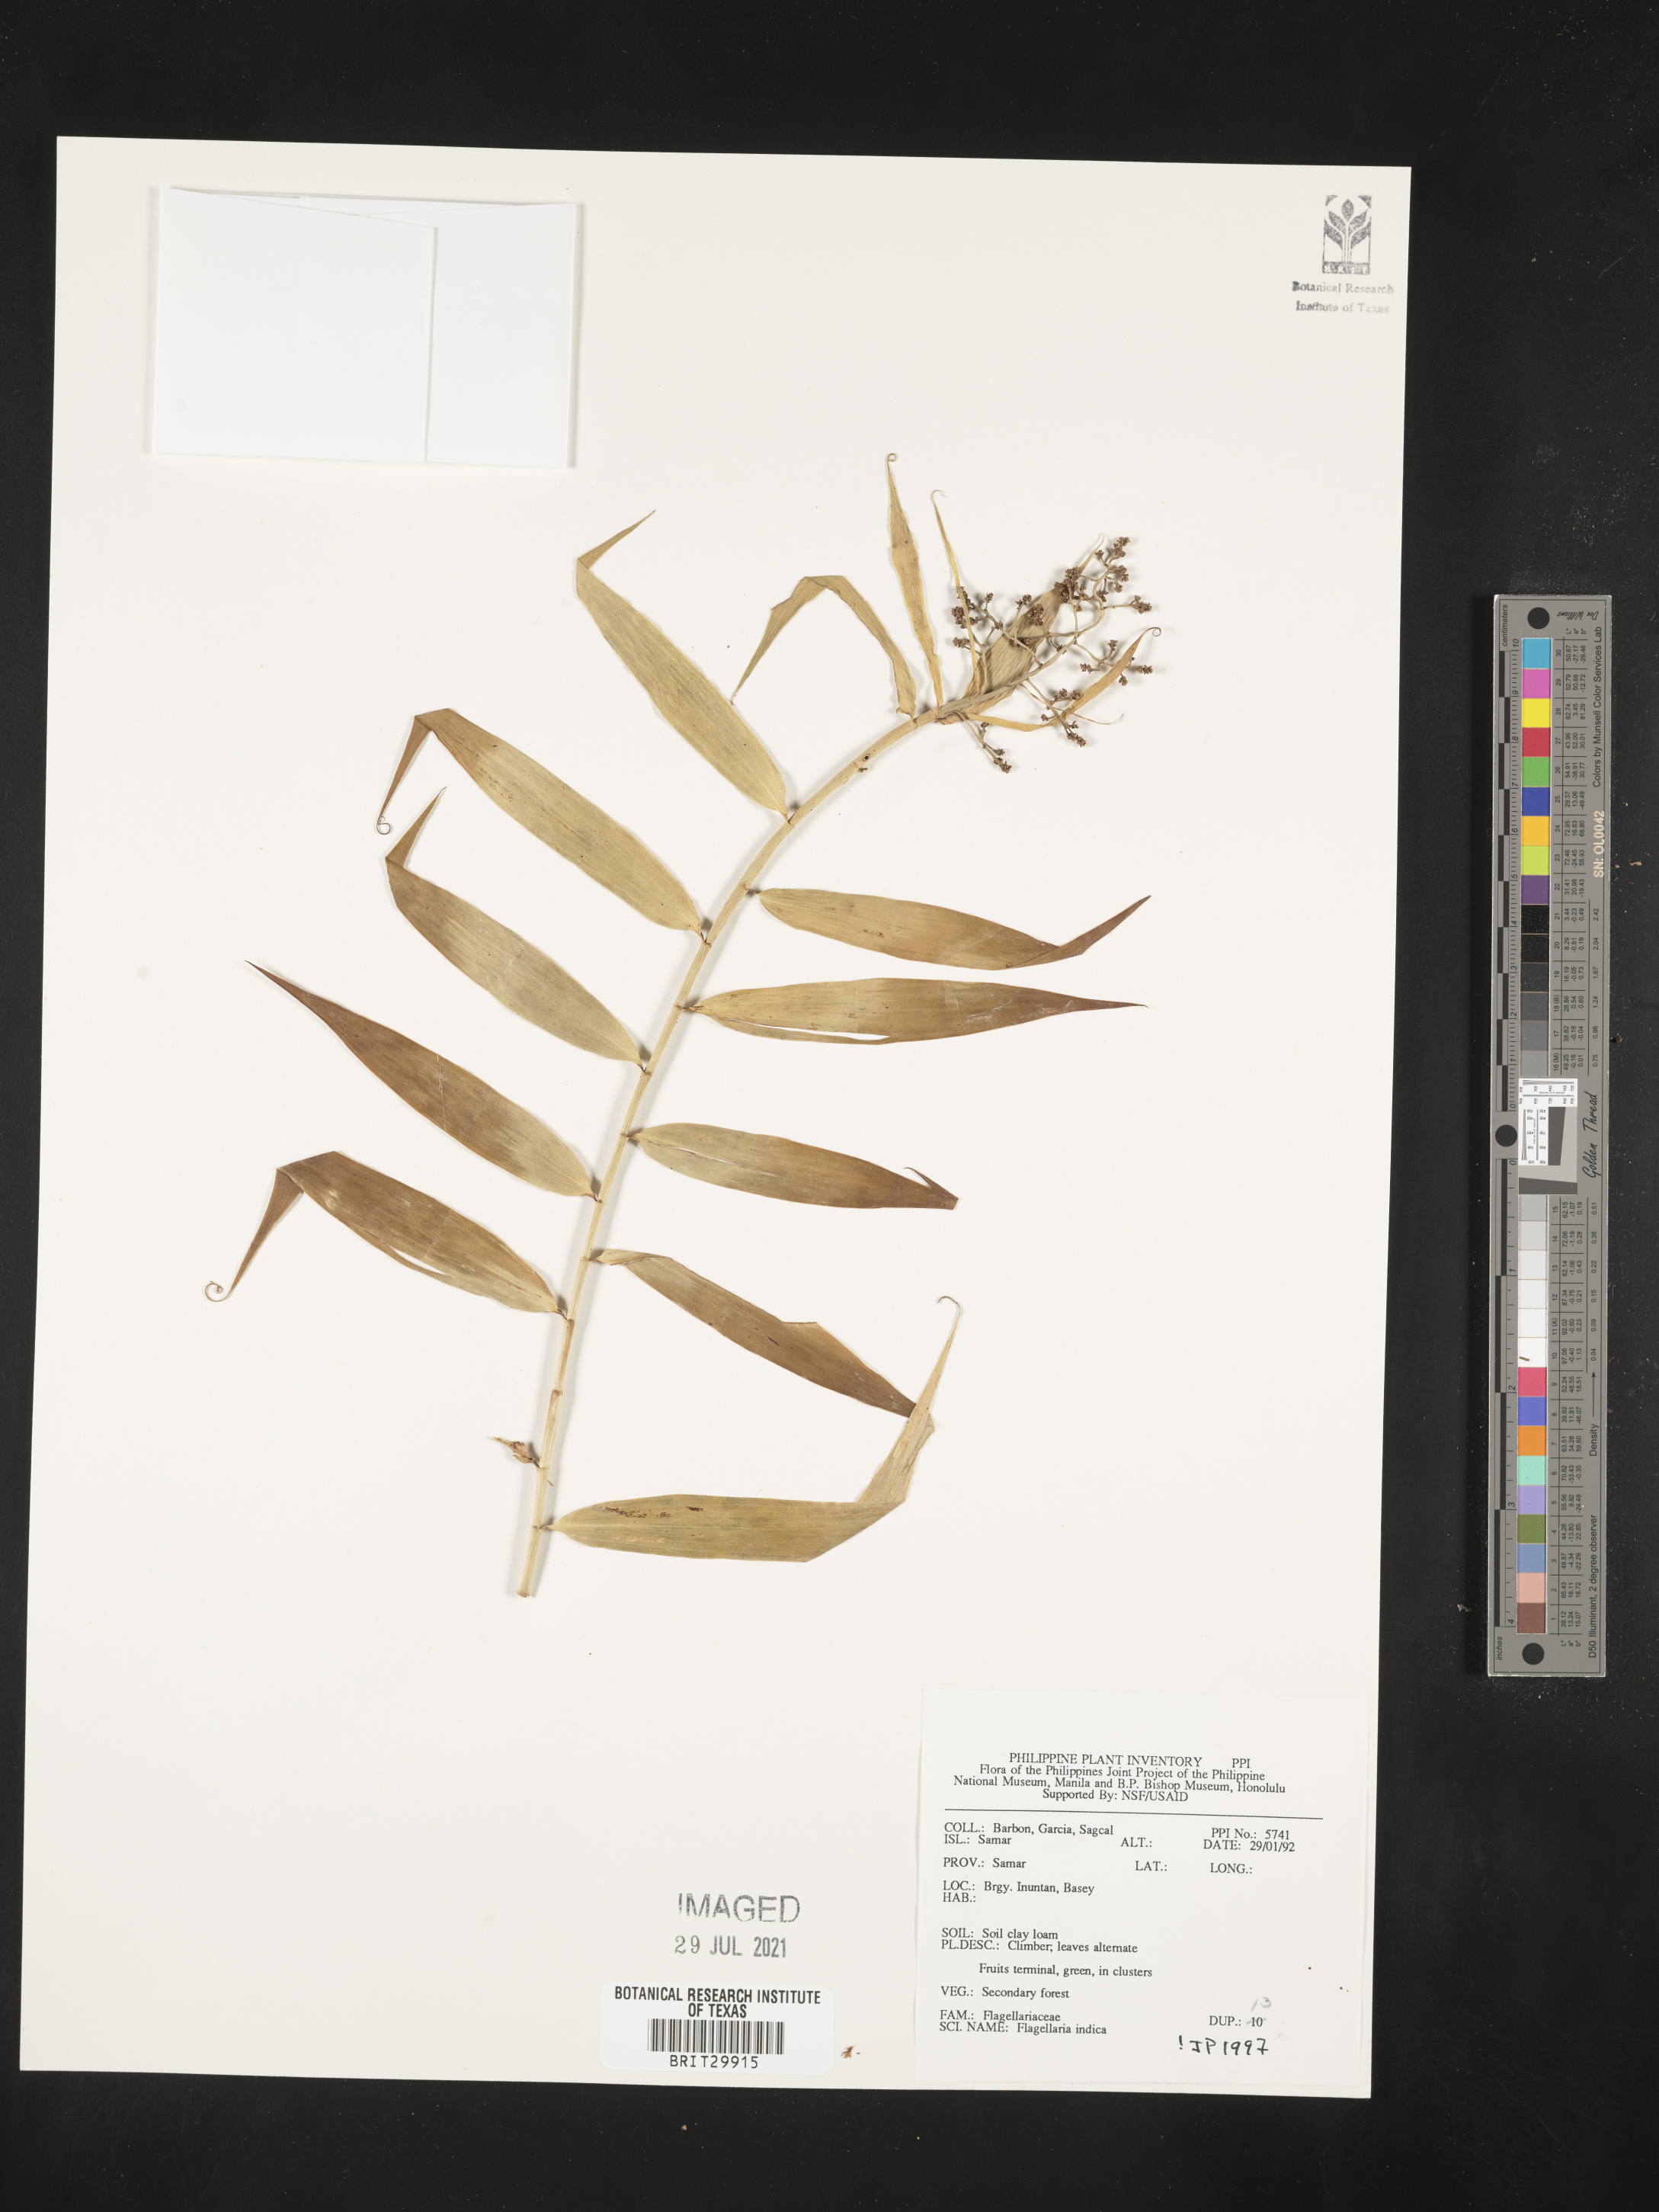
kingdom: Plantae
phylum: Tracheophyta
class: Liliopsida
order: Poales
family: Flagellariaceae
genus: Flagellaria
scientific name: Flagellaria indica
